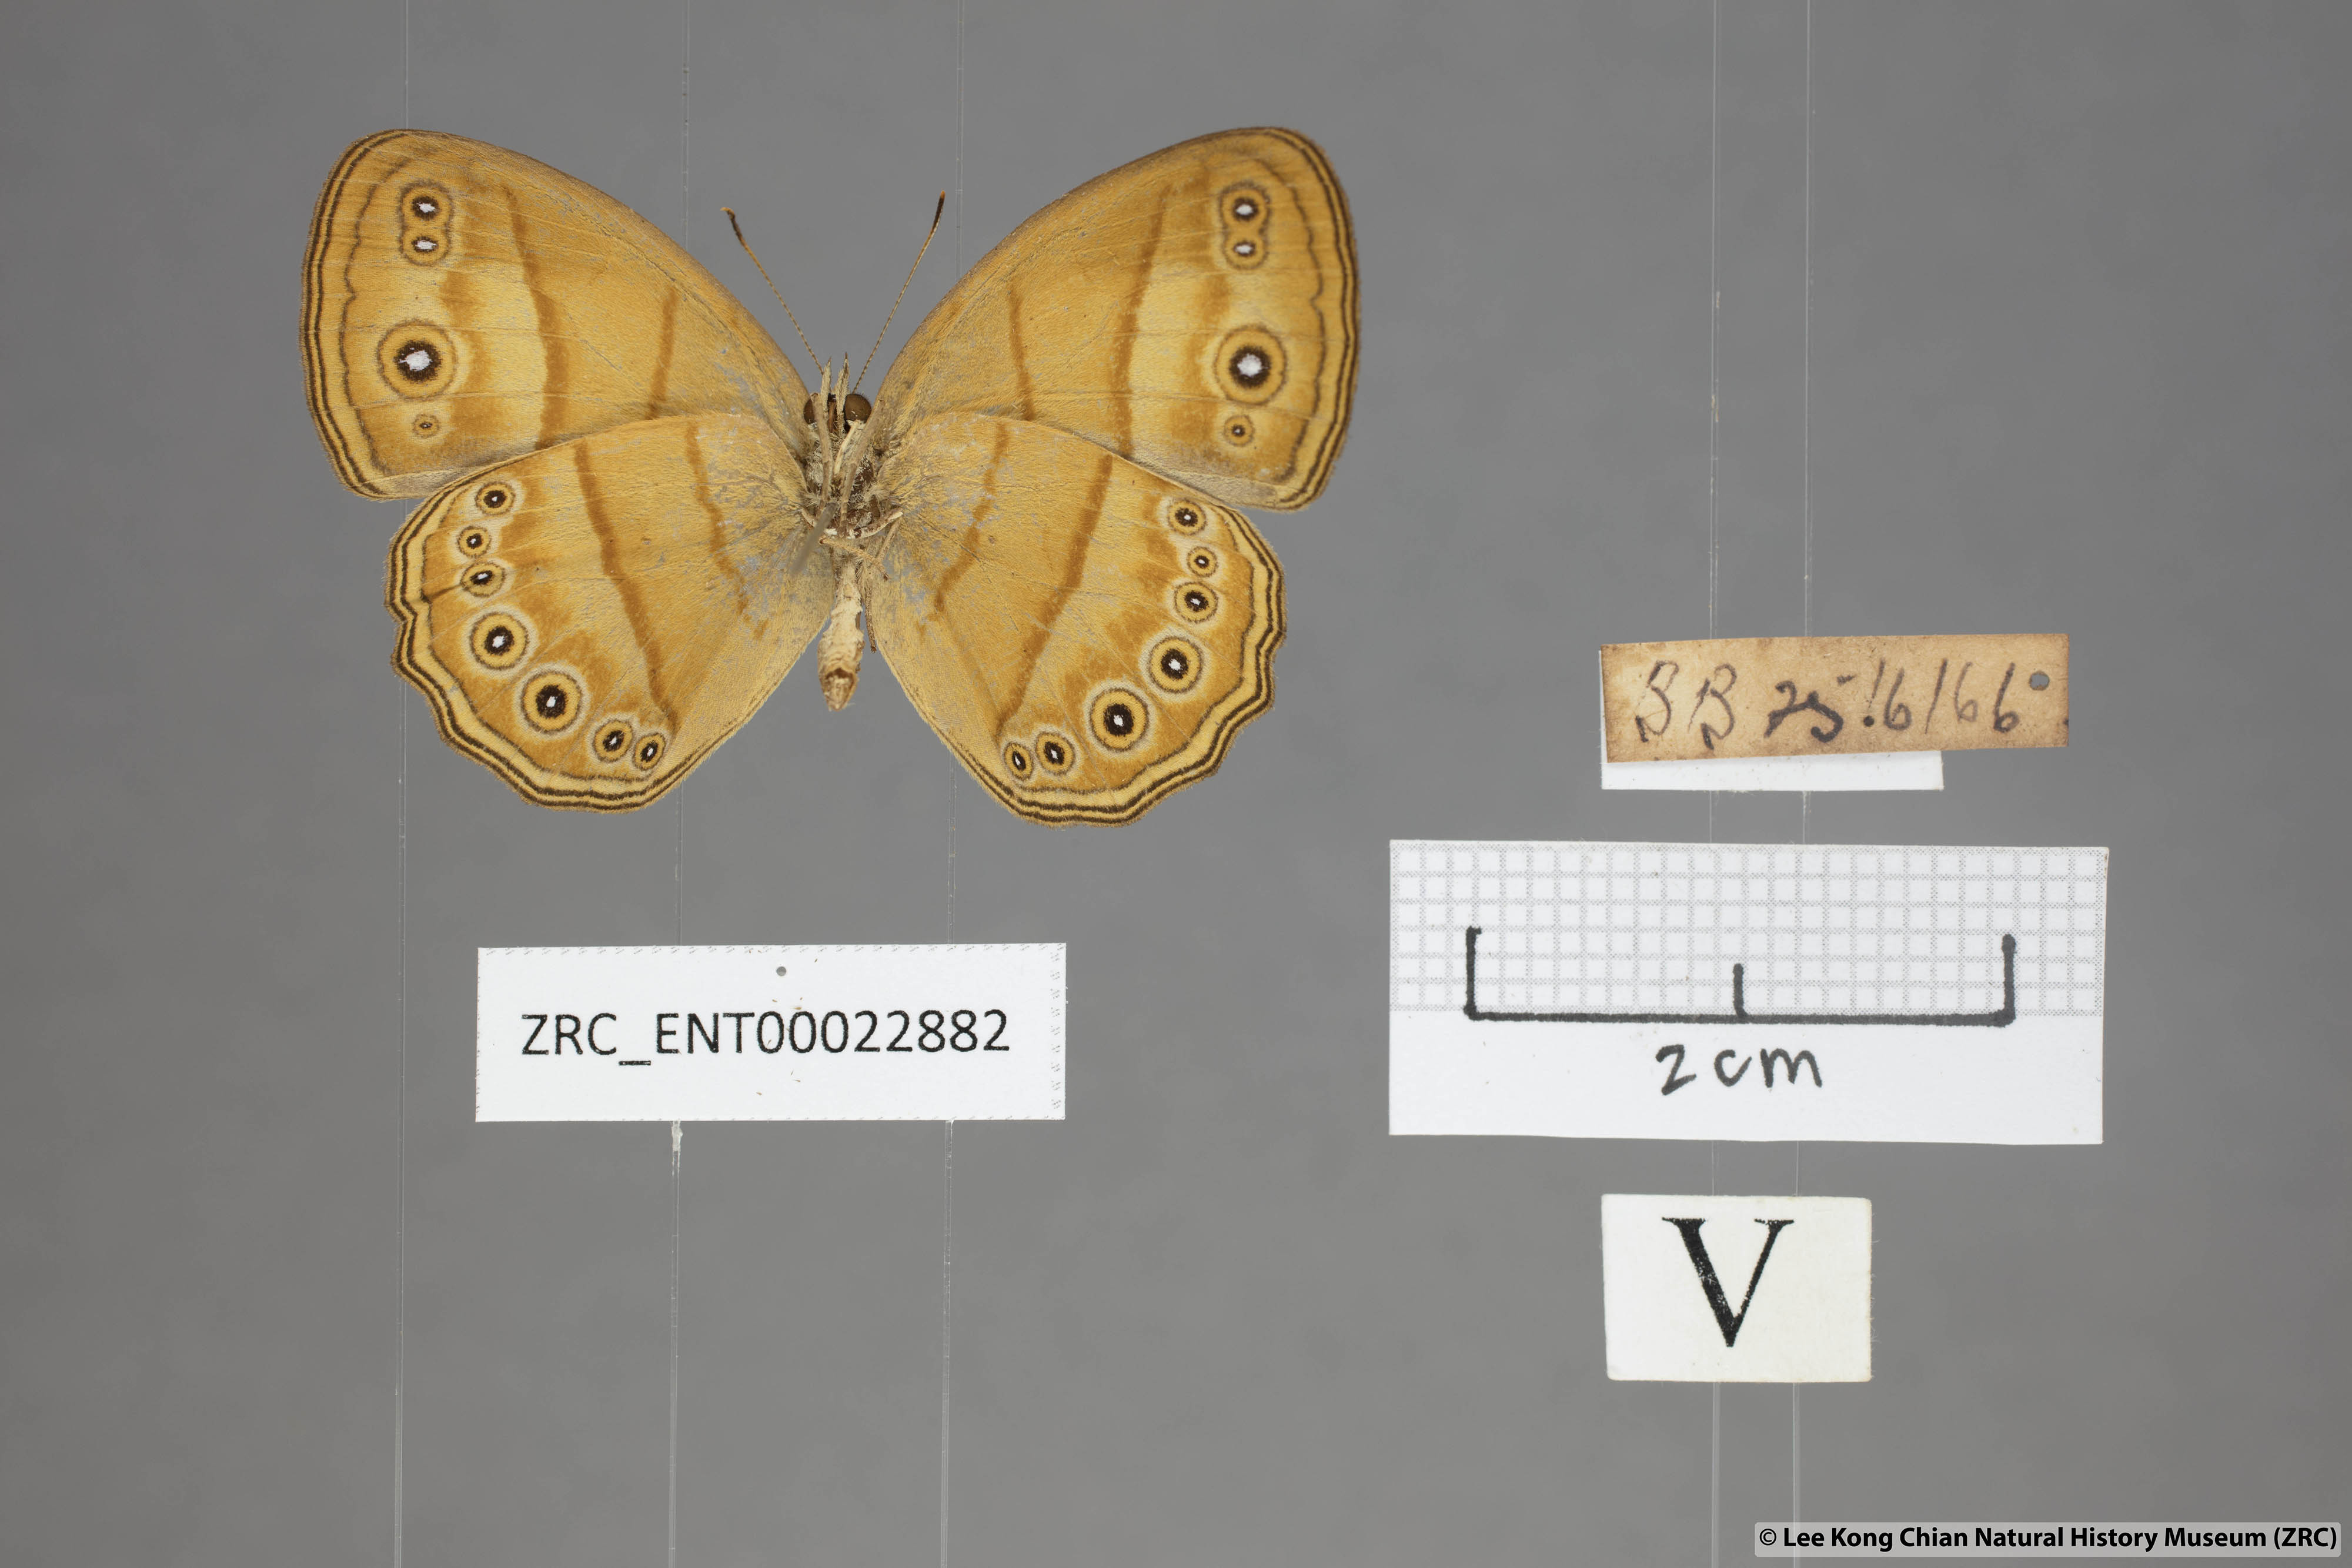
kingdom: Animalia
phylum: Arthropoda
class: Insecta
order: Lepidoptera
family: Nymphalidae
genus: Mycalesis
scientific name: Mycalesis anapita
